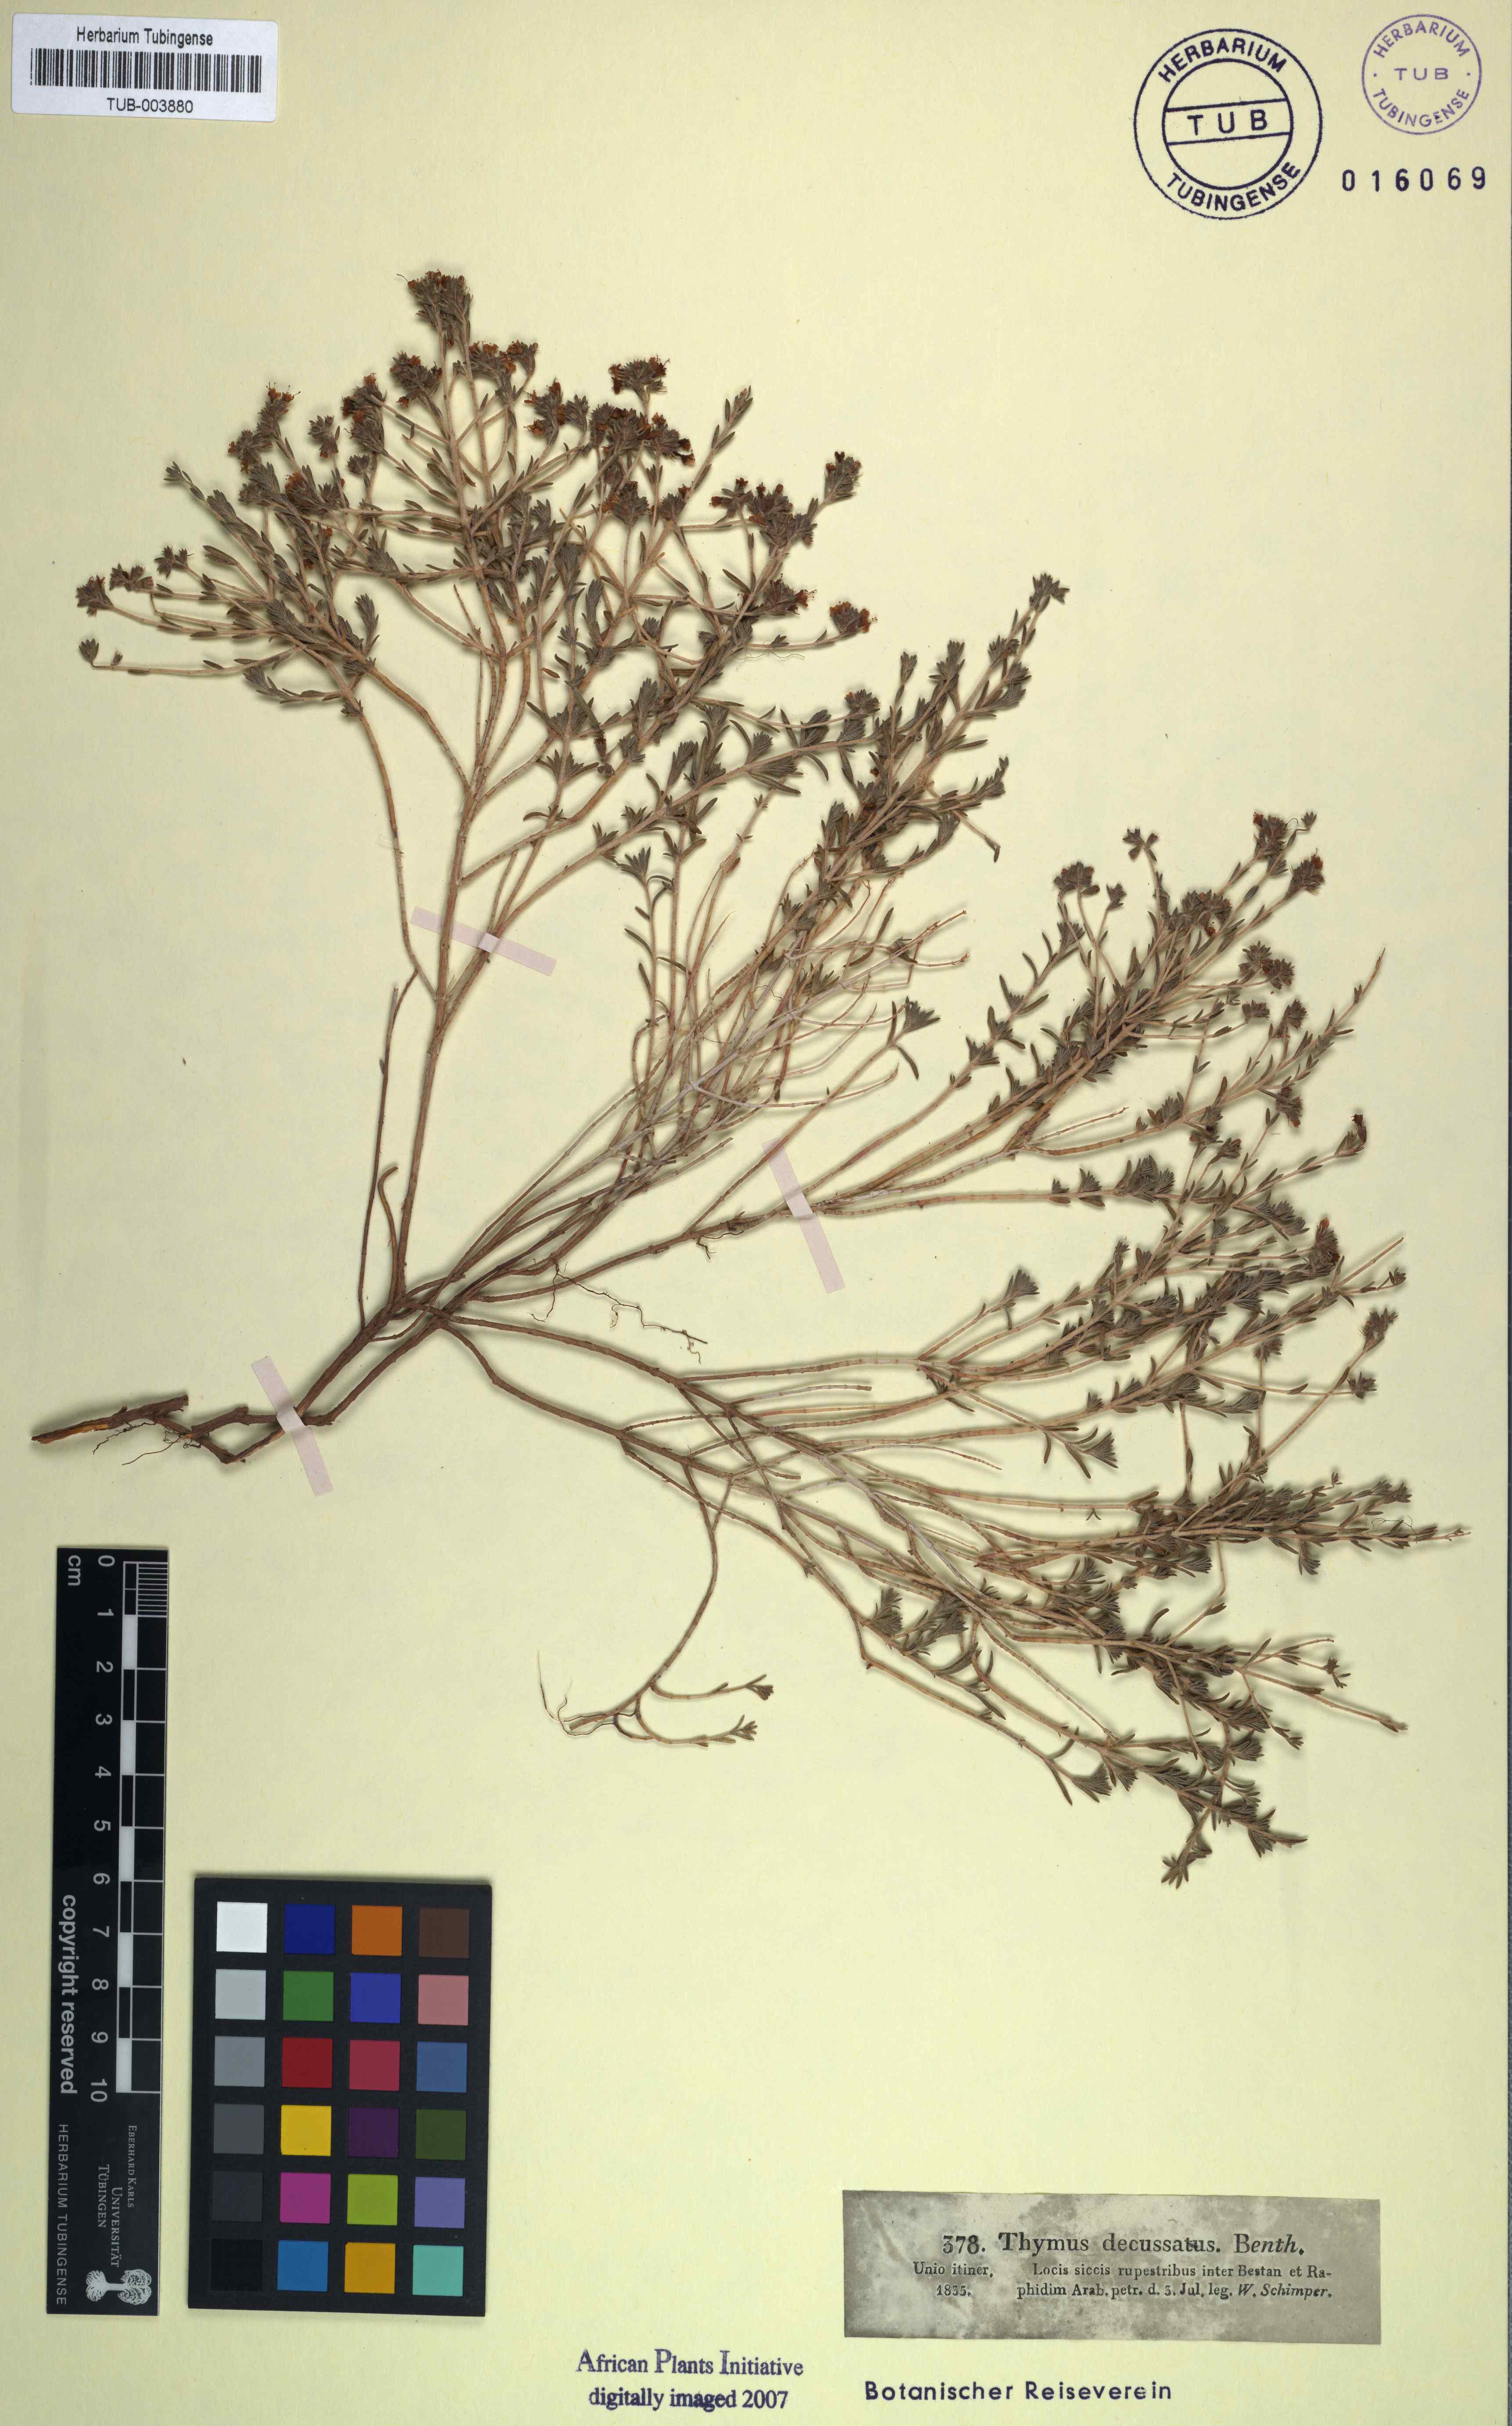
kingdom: Plantae
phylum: Tracheophyta
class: Magnoliopsida
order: Lamiales
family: Lamiaceae
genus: Thymus
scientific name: Thymus decussatus
